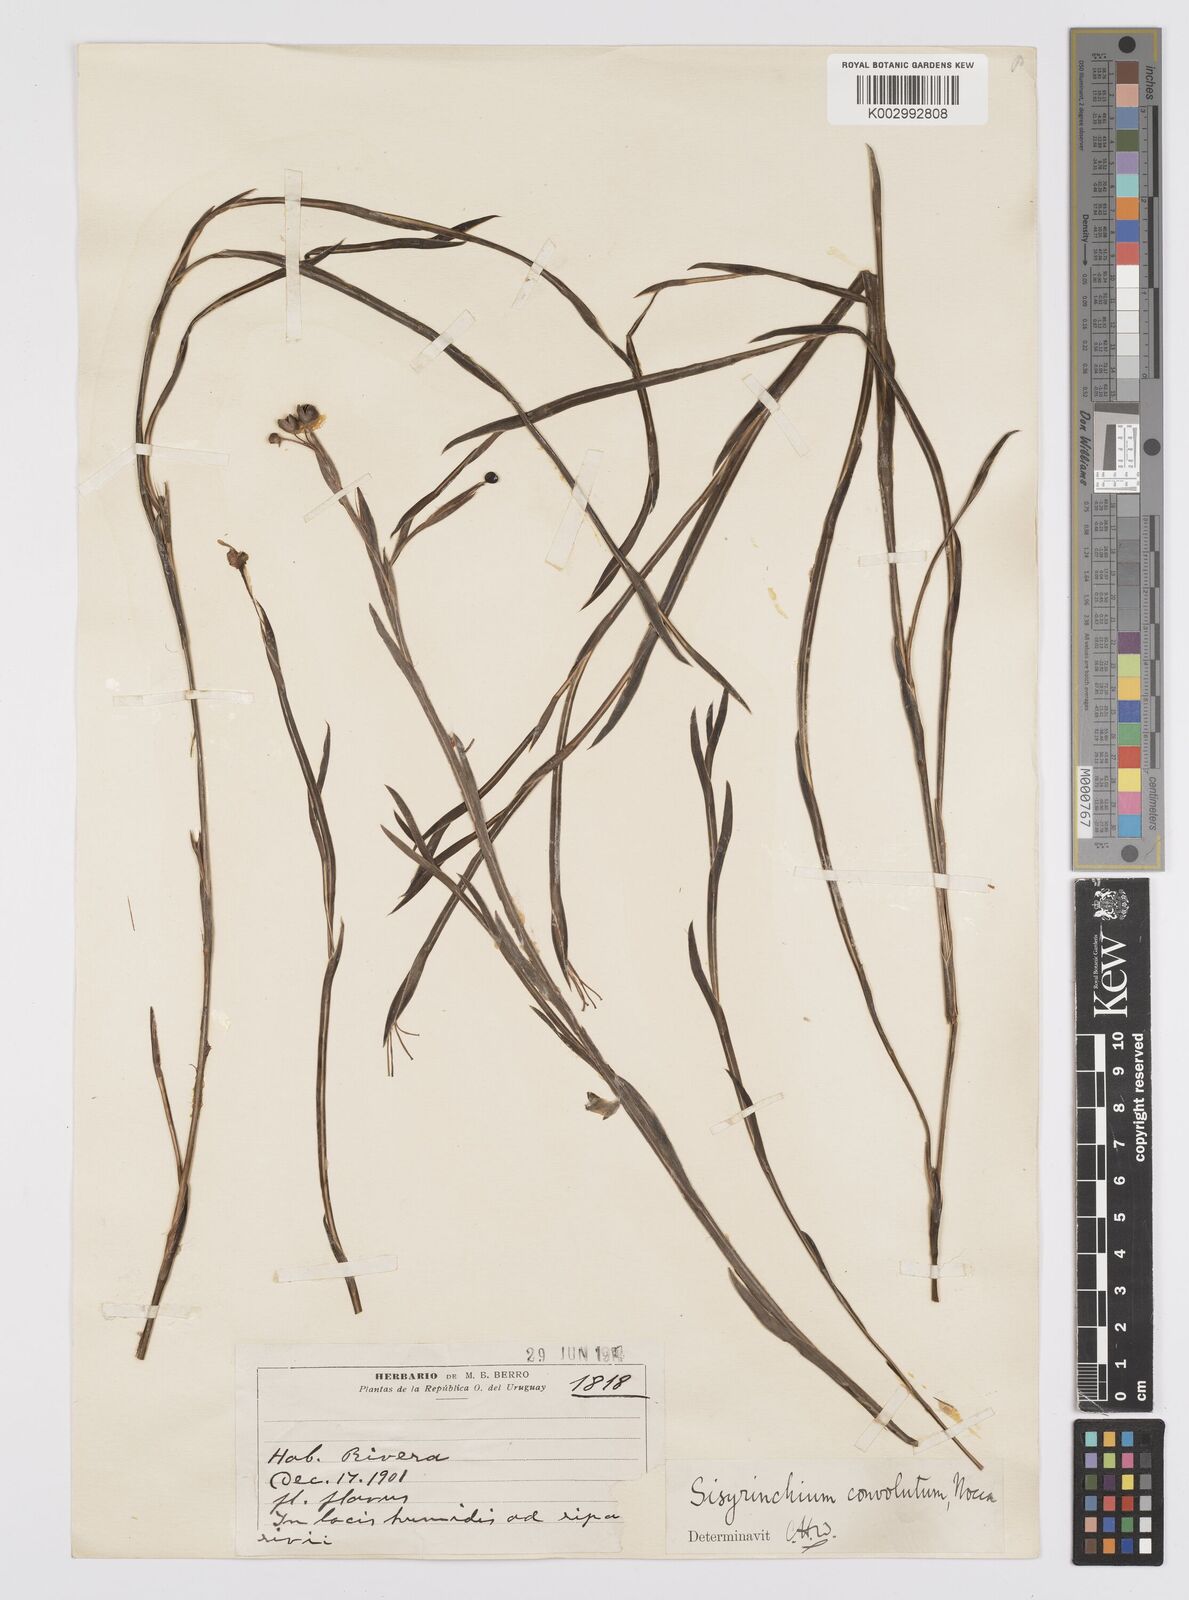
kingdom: Plantae
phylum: Tracheophyta
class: Liliopsida
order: Asparagales
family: Iridaceae
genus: Sisyrinchium
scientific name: Sisyrinchium convolutum
